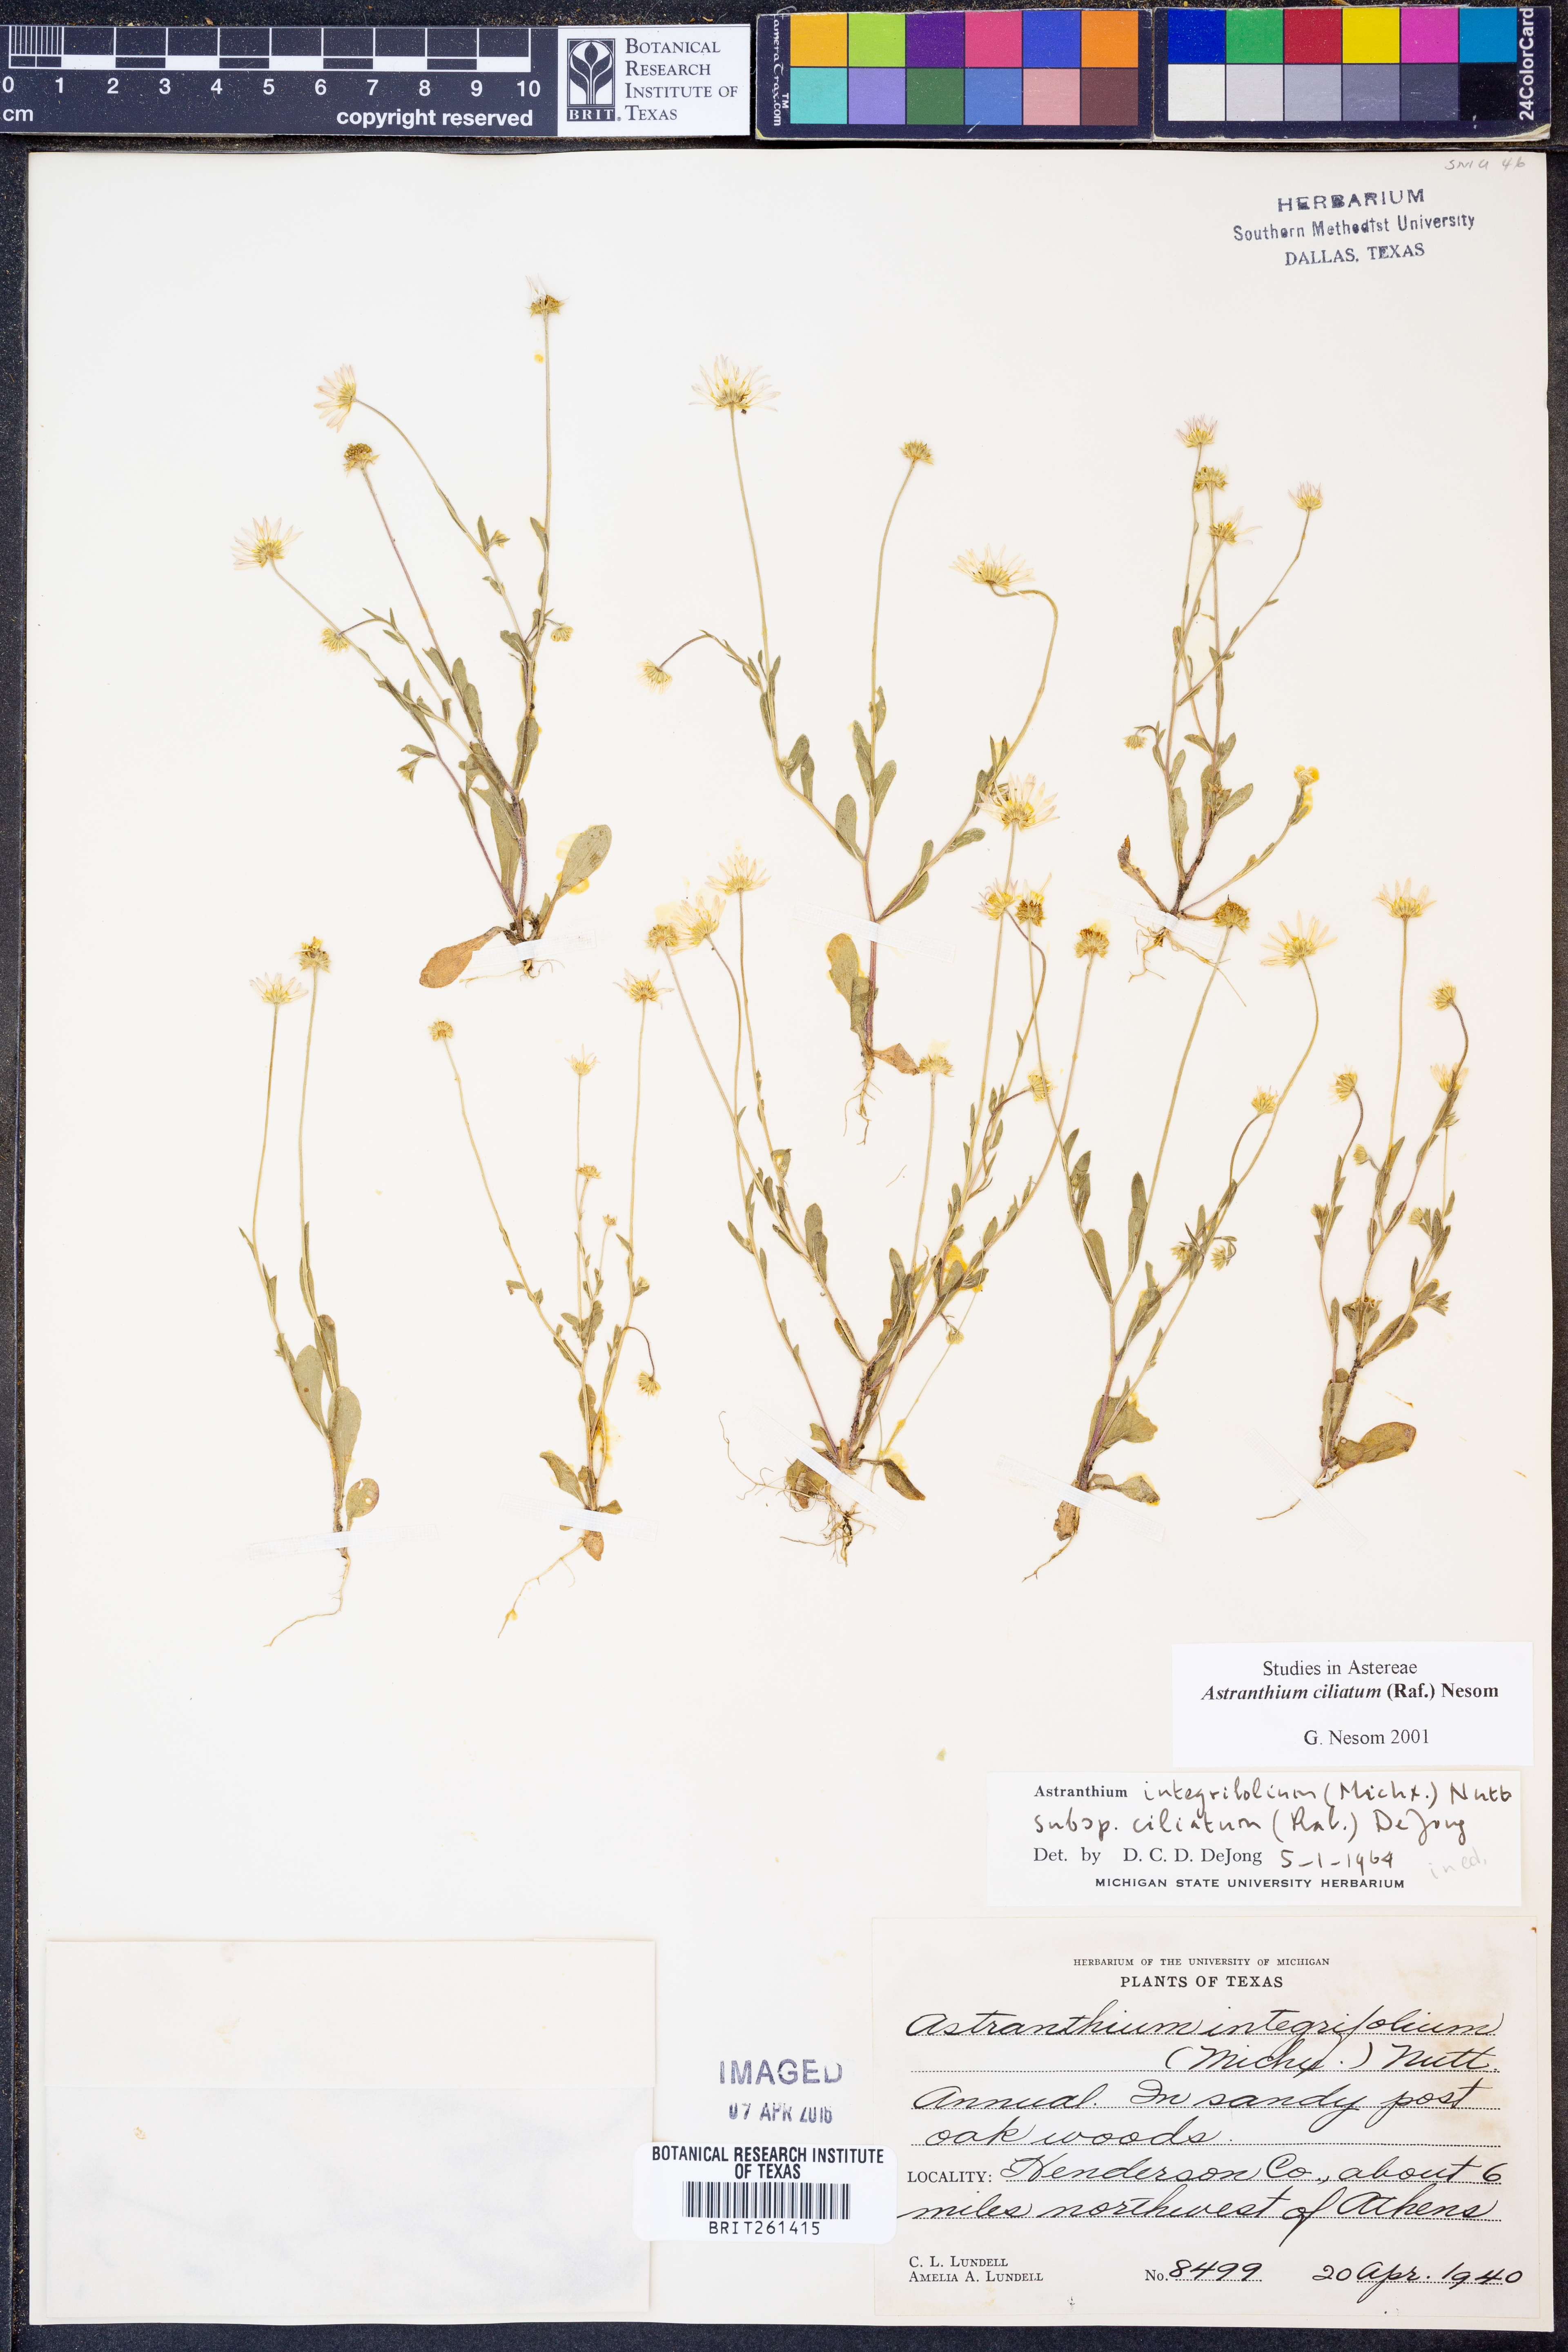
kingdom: Plantae
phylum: Tracheophyta
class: Magnoliopsida
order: Asterales
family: Asteraceae
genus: Astranthium
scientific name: Astranthium ciliatum
